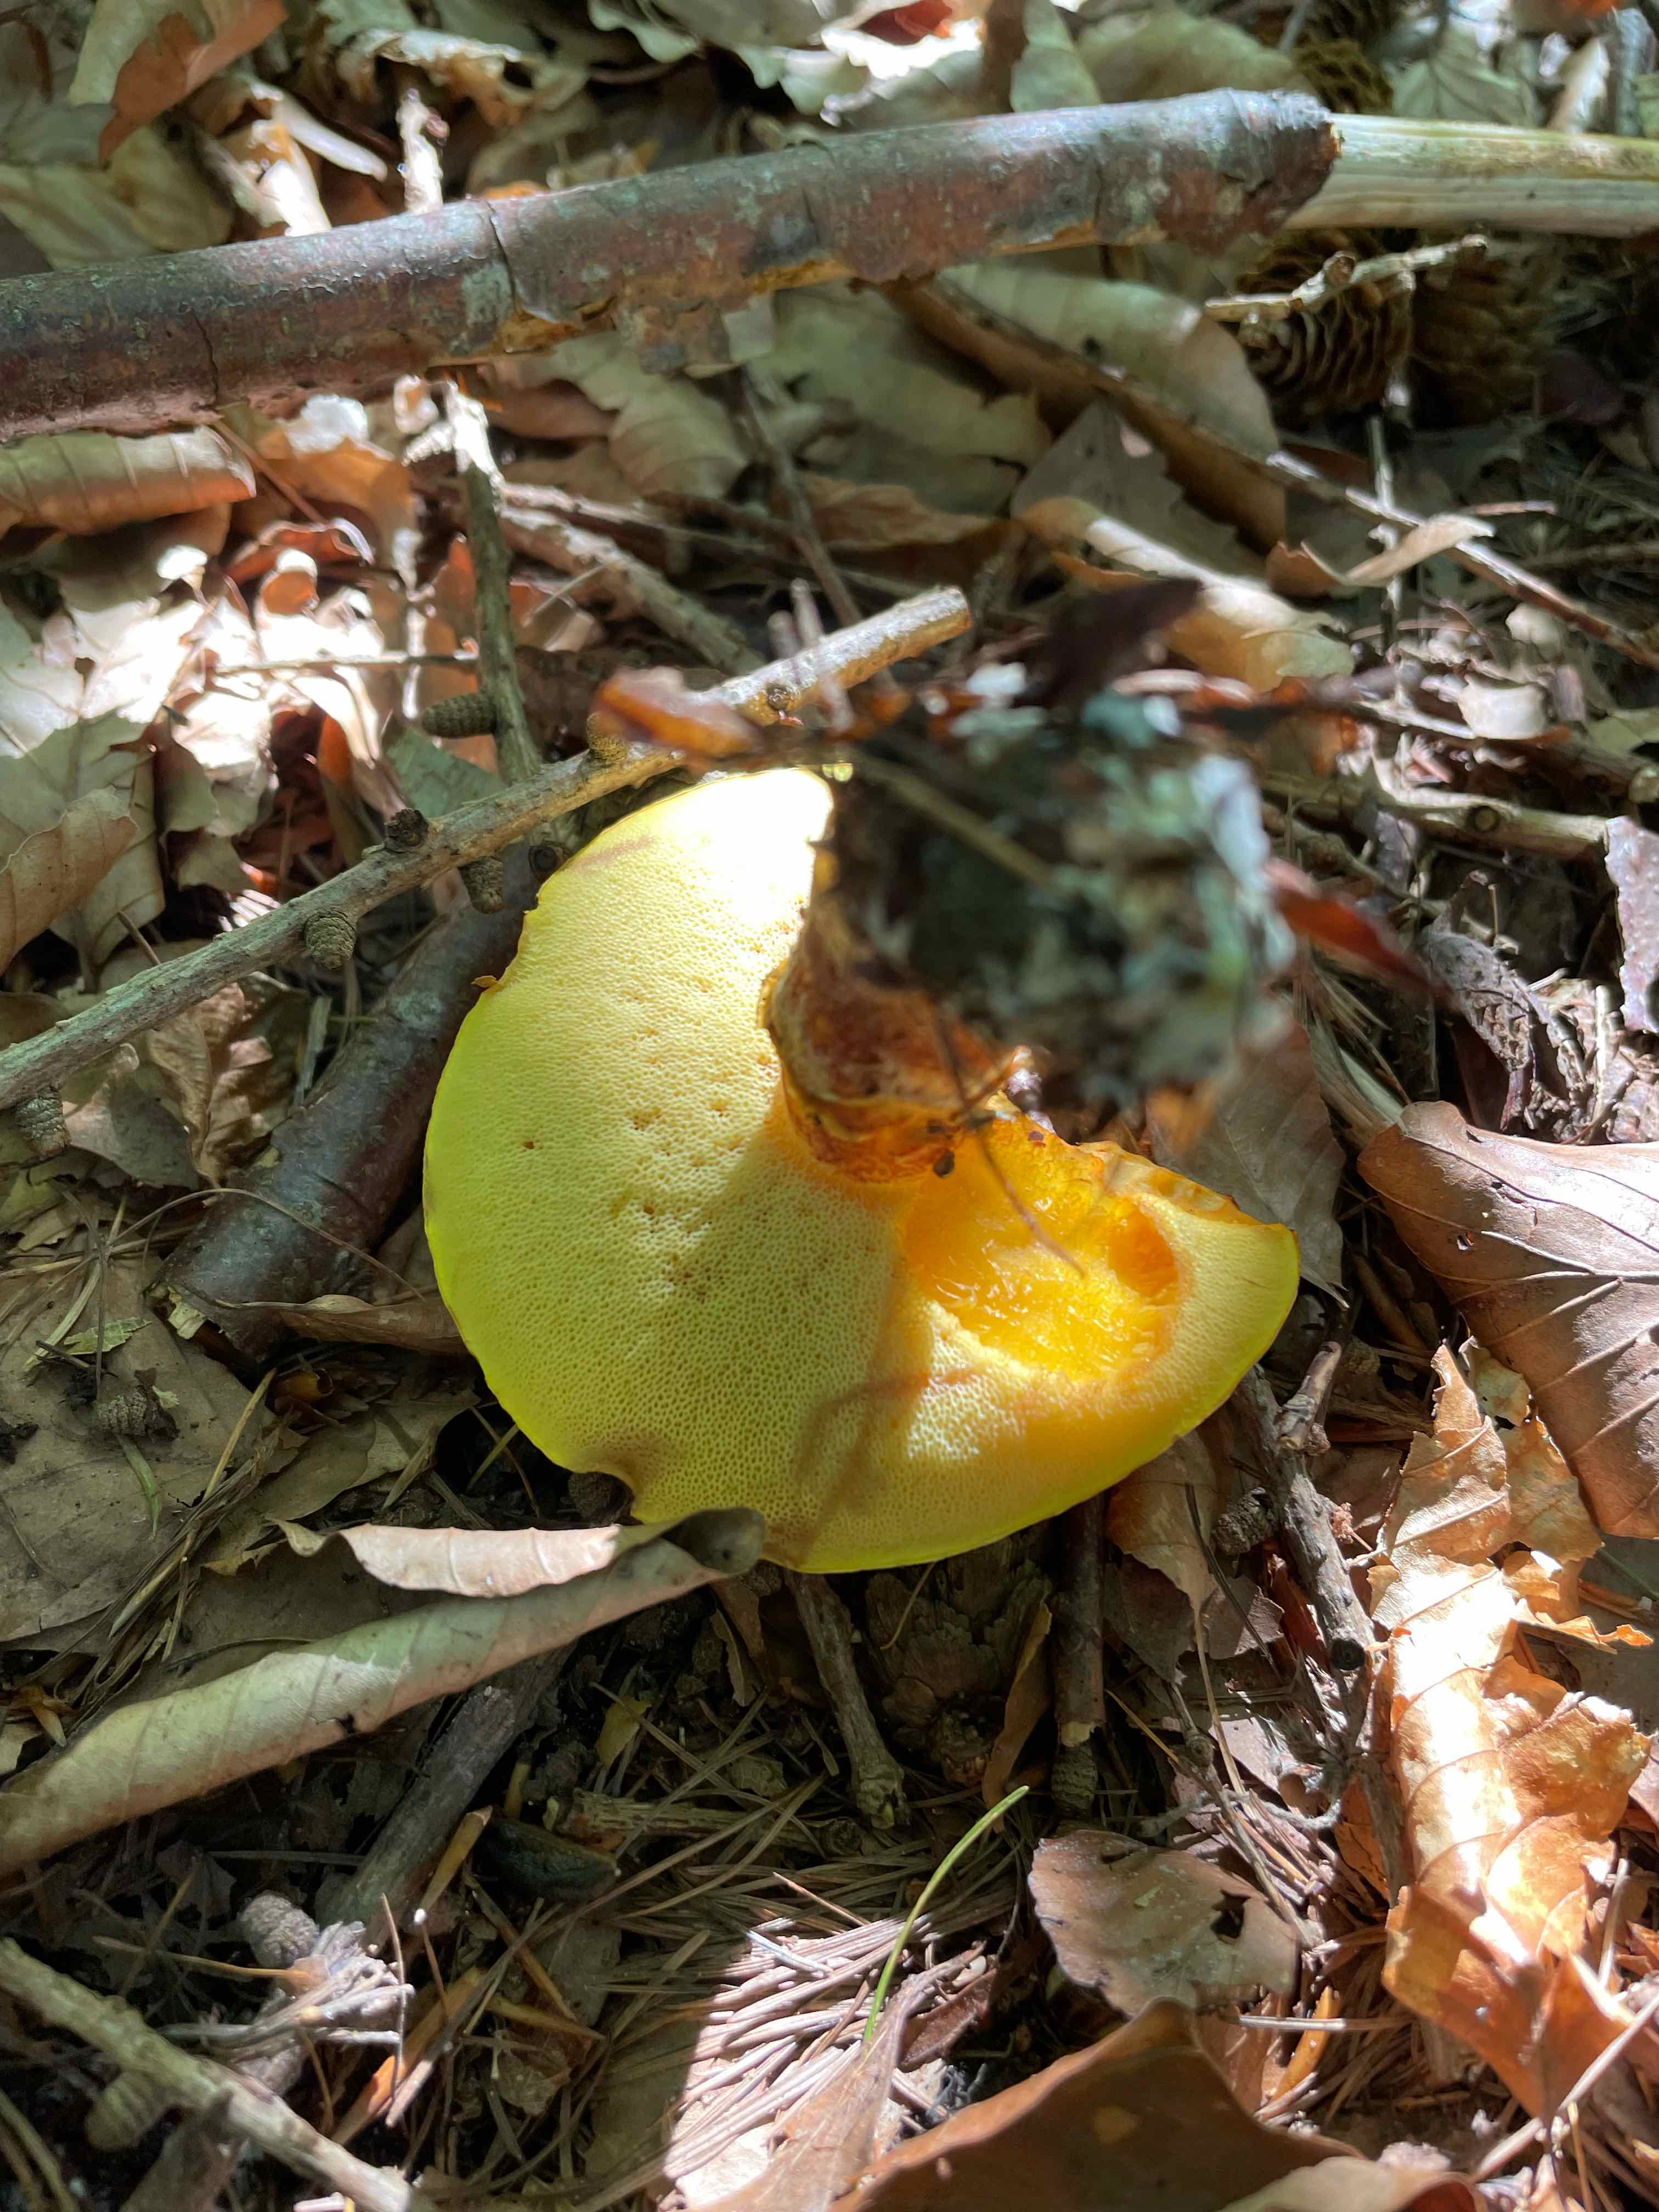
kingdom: Fungi
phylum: Basidiomycota
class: Agaricomycetes
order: Boletales
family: Suillaceae
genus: Suillus
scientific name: Suillus grevillei
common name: lærke-slimrørhat
